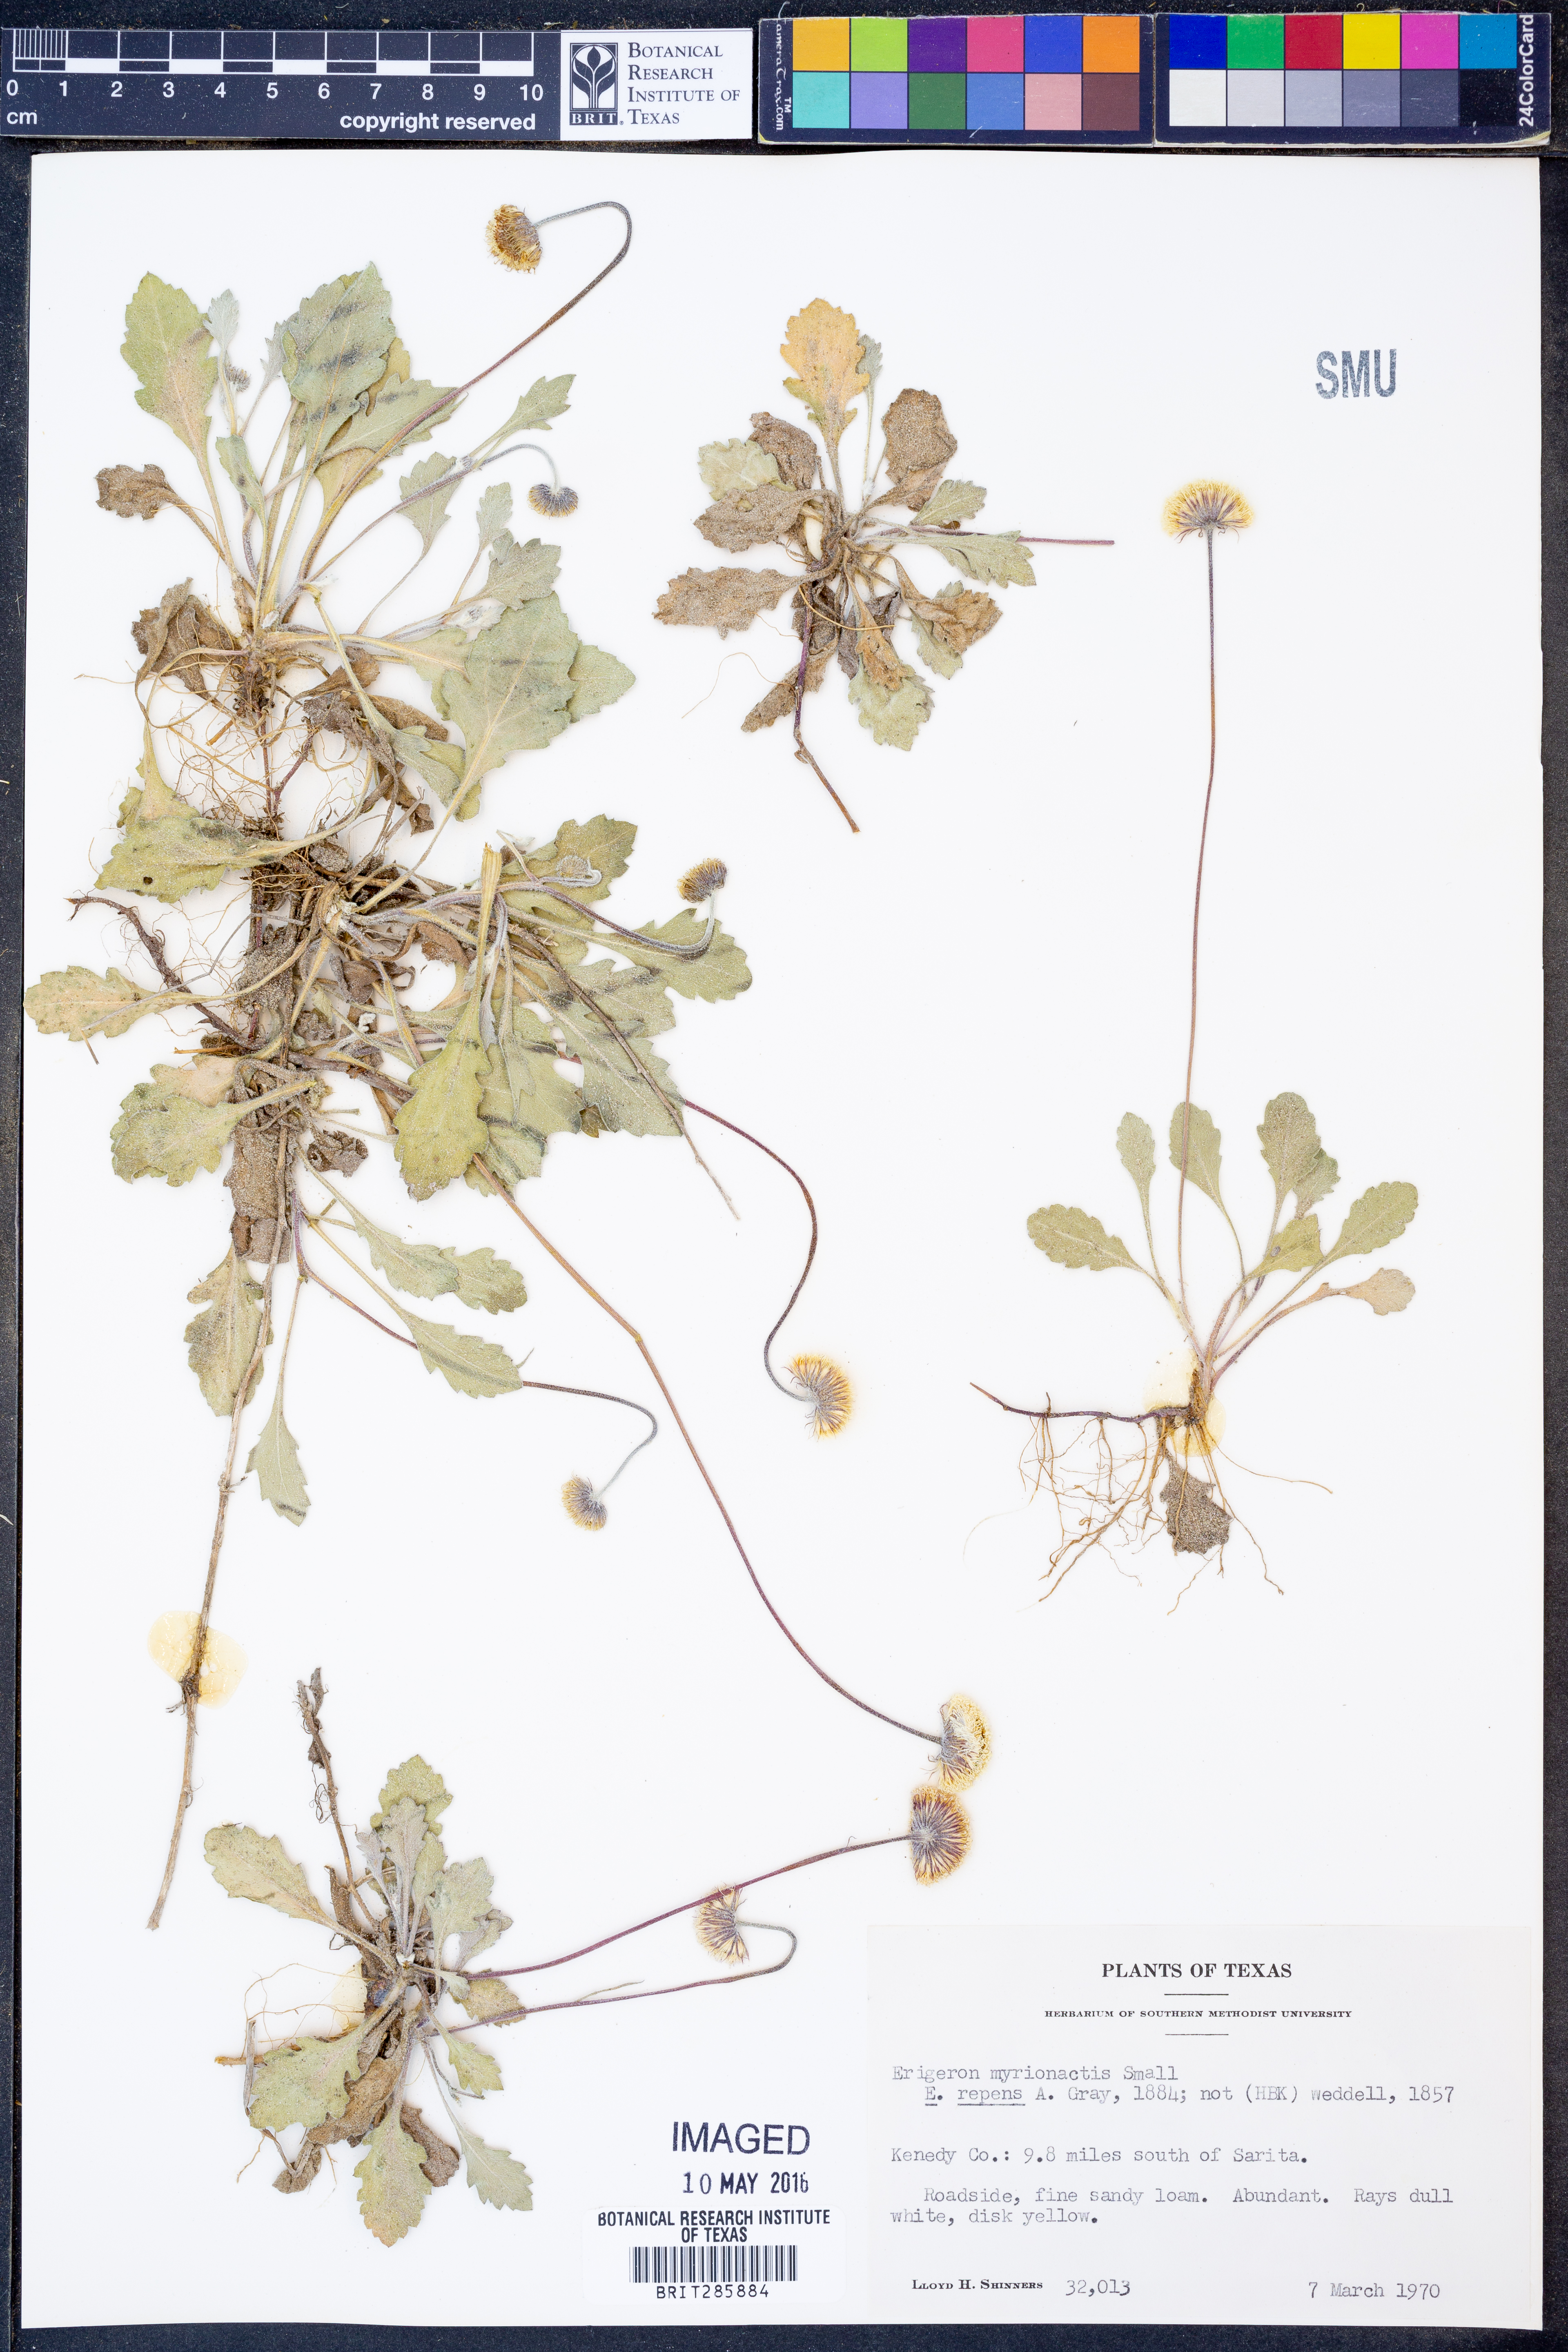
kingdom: Plantae
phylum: Tracheophyta
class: Magnoliopsida
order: Asterales
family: Asteraceae
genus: Erigeron
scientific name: Erigeron procumbens
